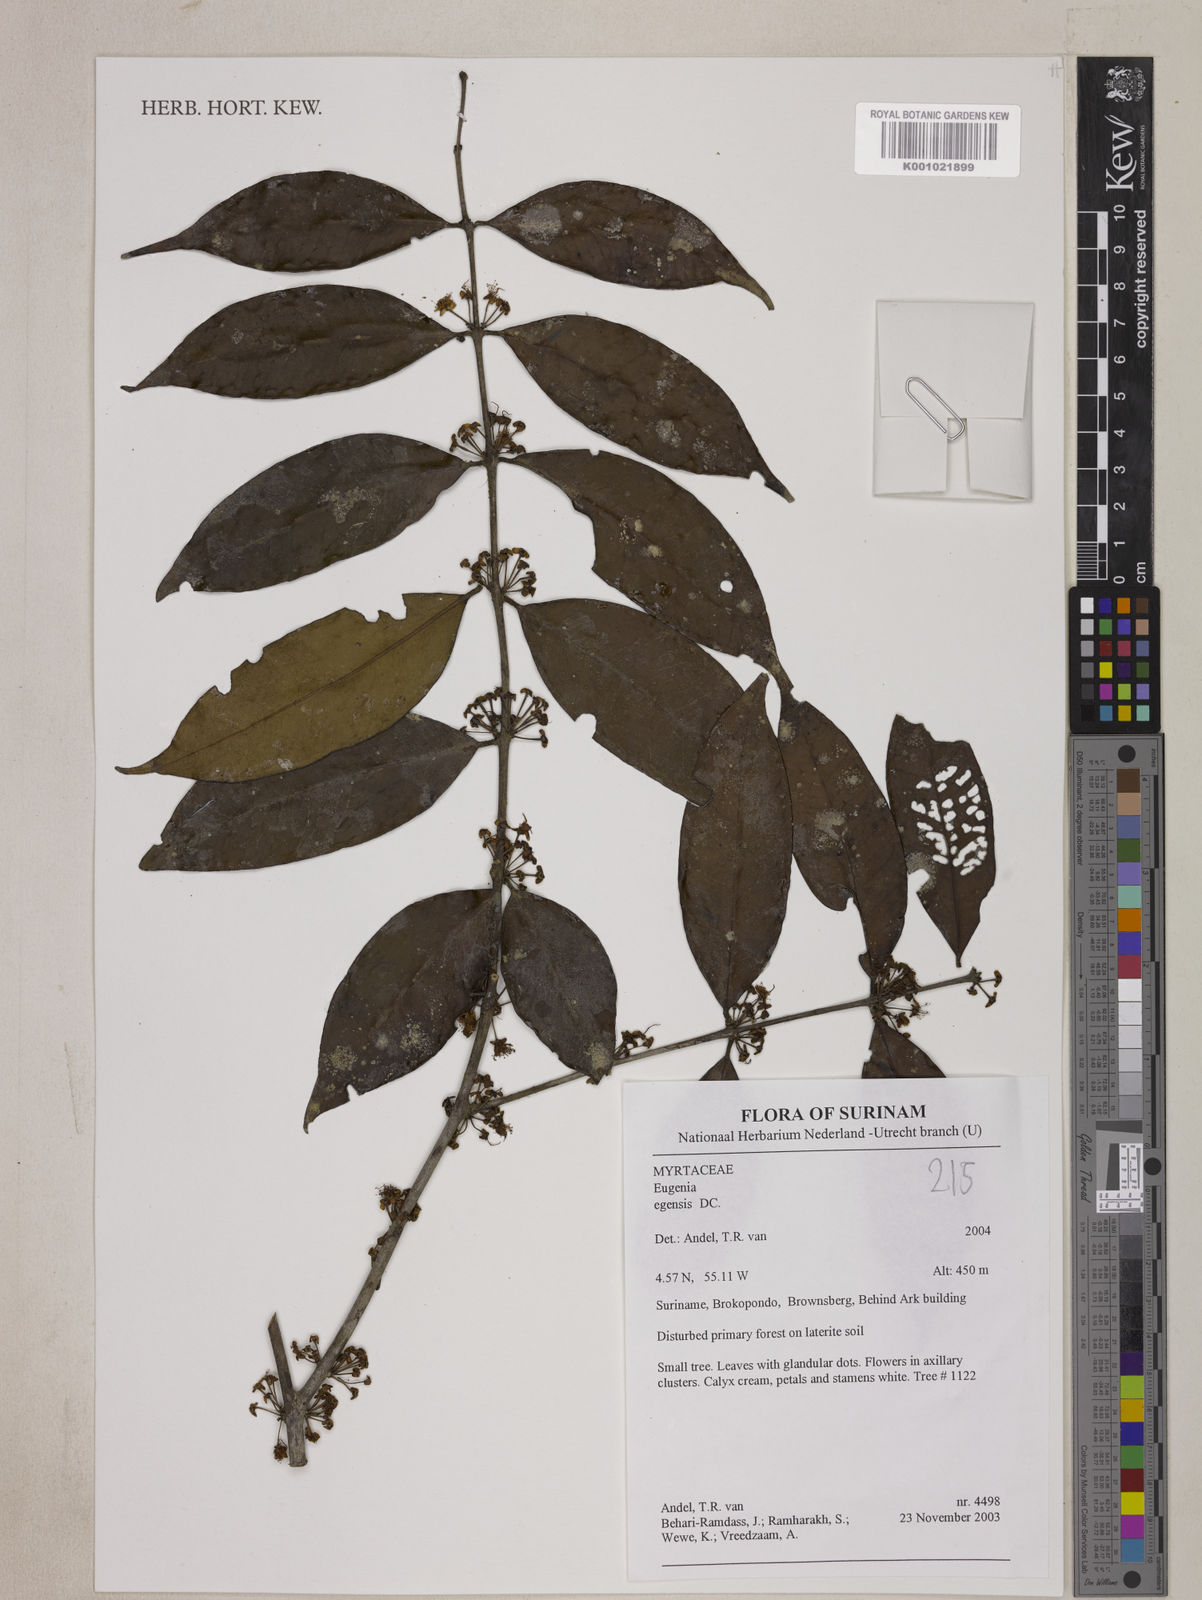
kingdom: Plantae
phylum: Tracheophyta
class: Magnoliopsida
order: Myrtales
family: Myrtaceae
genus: Eugenia
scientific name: Eugenia egensis
